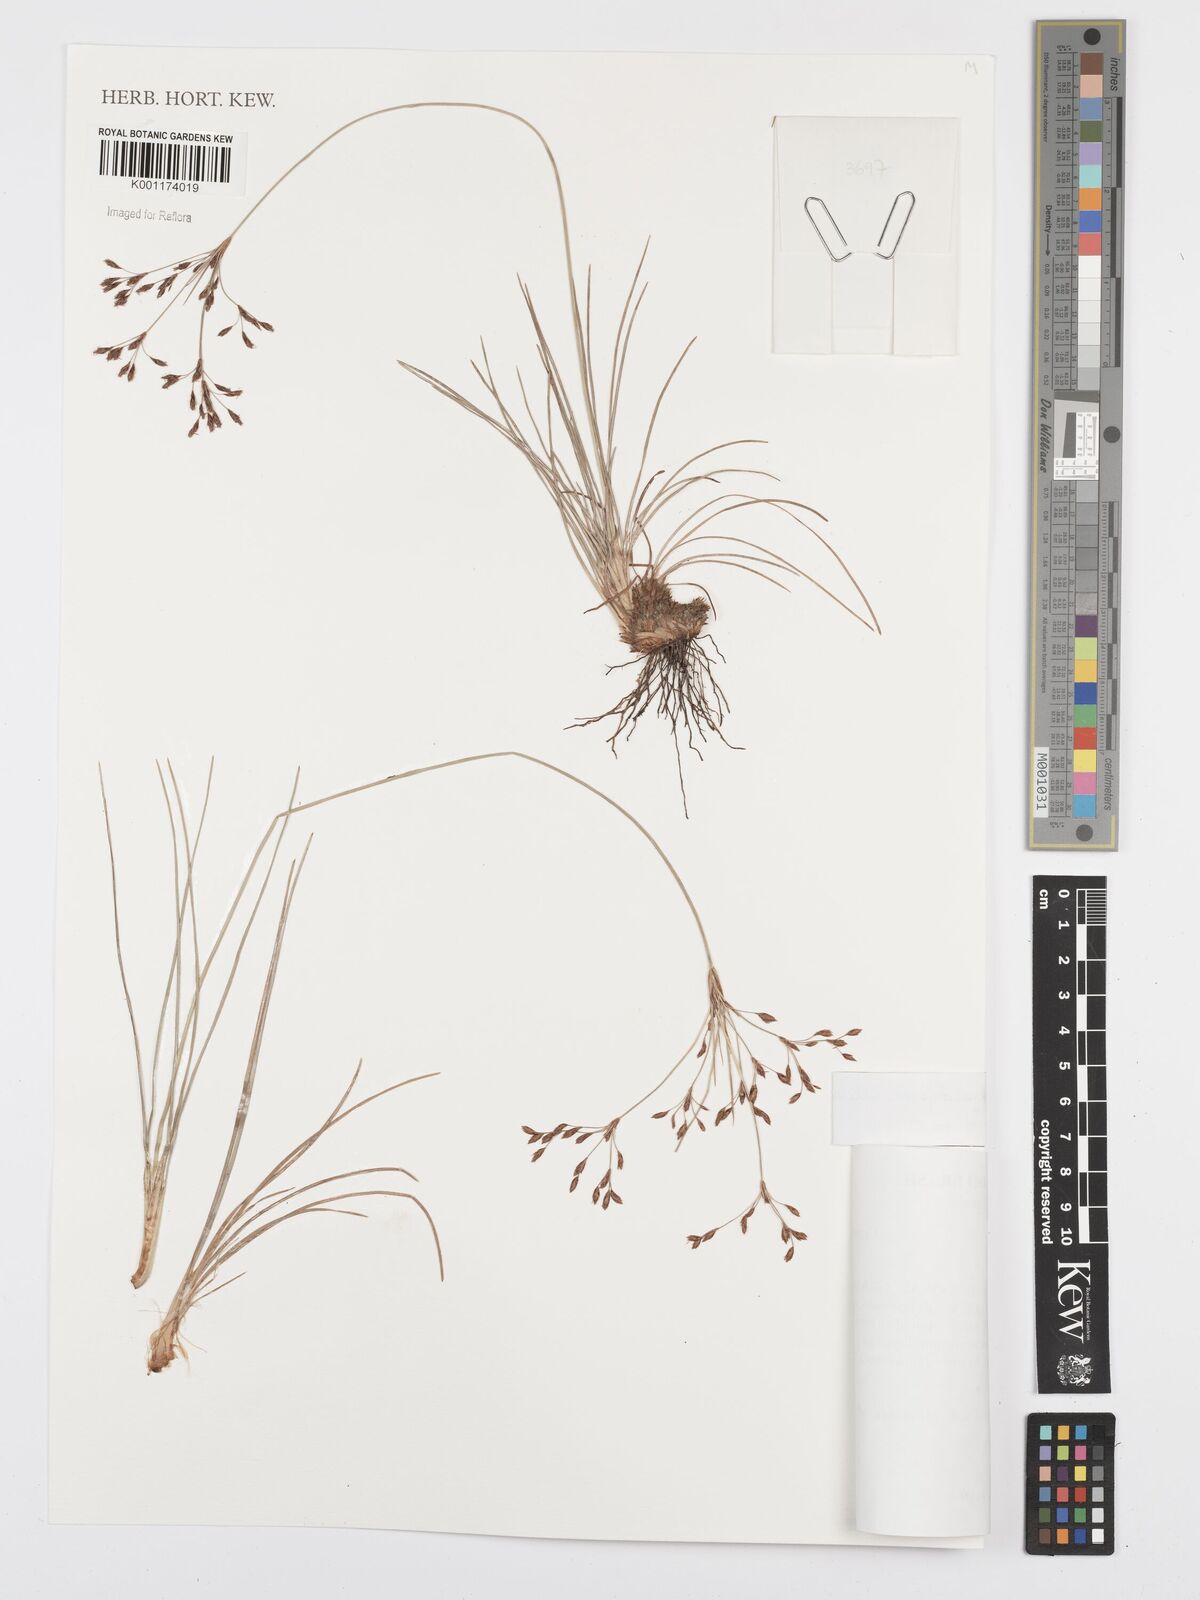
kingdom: Plantae
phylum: Tracheophyta
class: Liliopsida
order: Poales
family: Cyperaceae
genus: Bulbostylis
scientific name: Bulbostylis jacobinae
